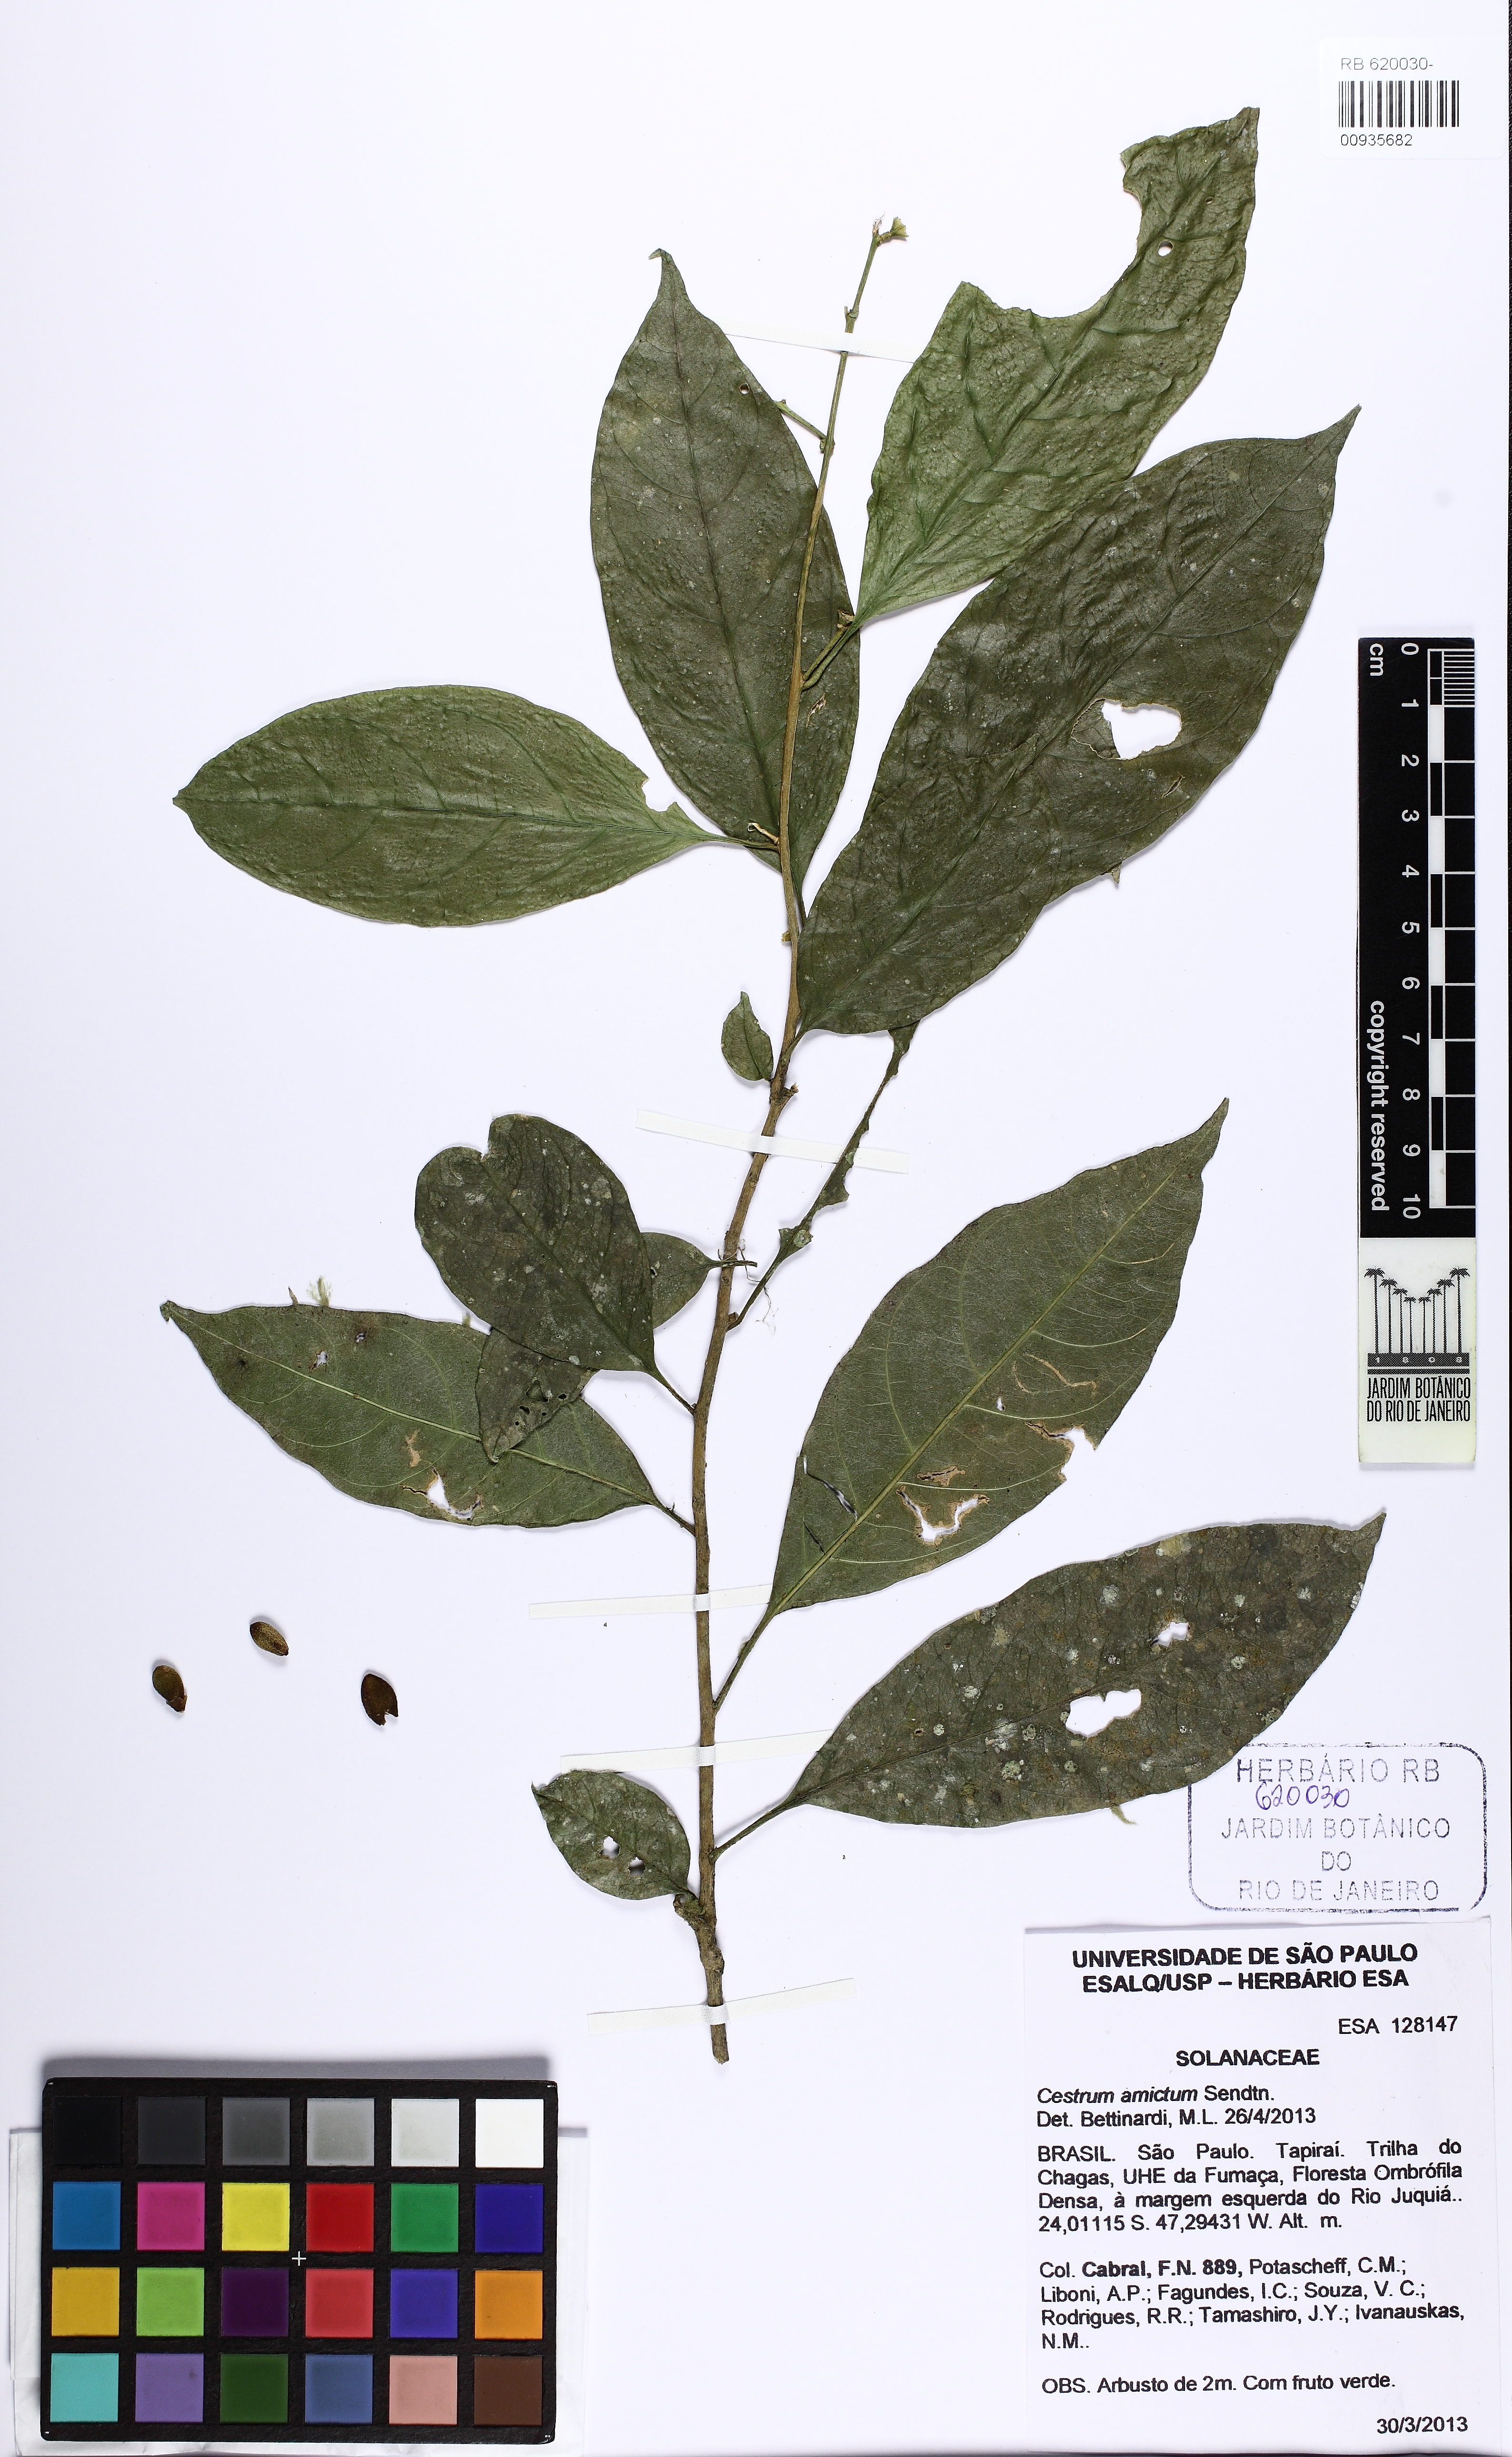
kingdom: Plantae
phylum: Tracheophyta
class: Magnoliopsida
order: Solanales
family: Solanaceae
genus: Cestrum
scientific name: Cestrum bracteatum
